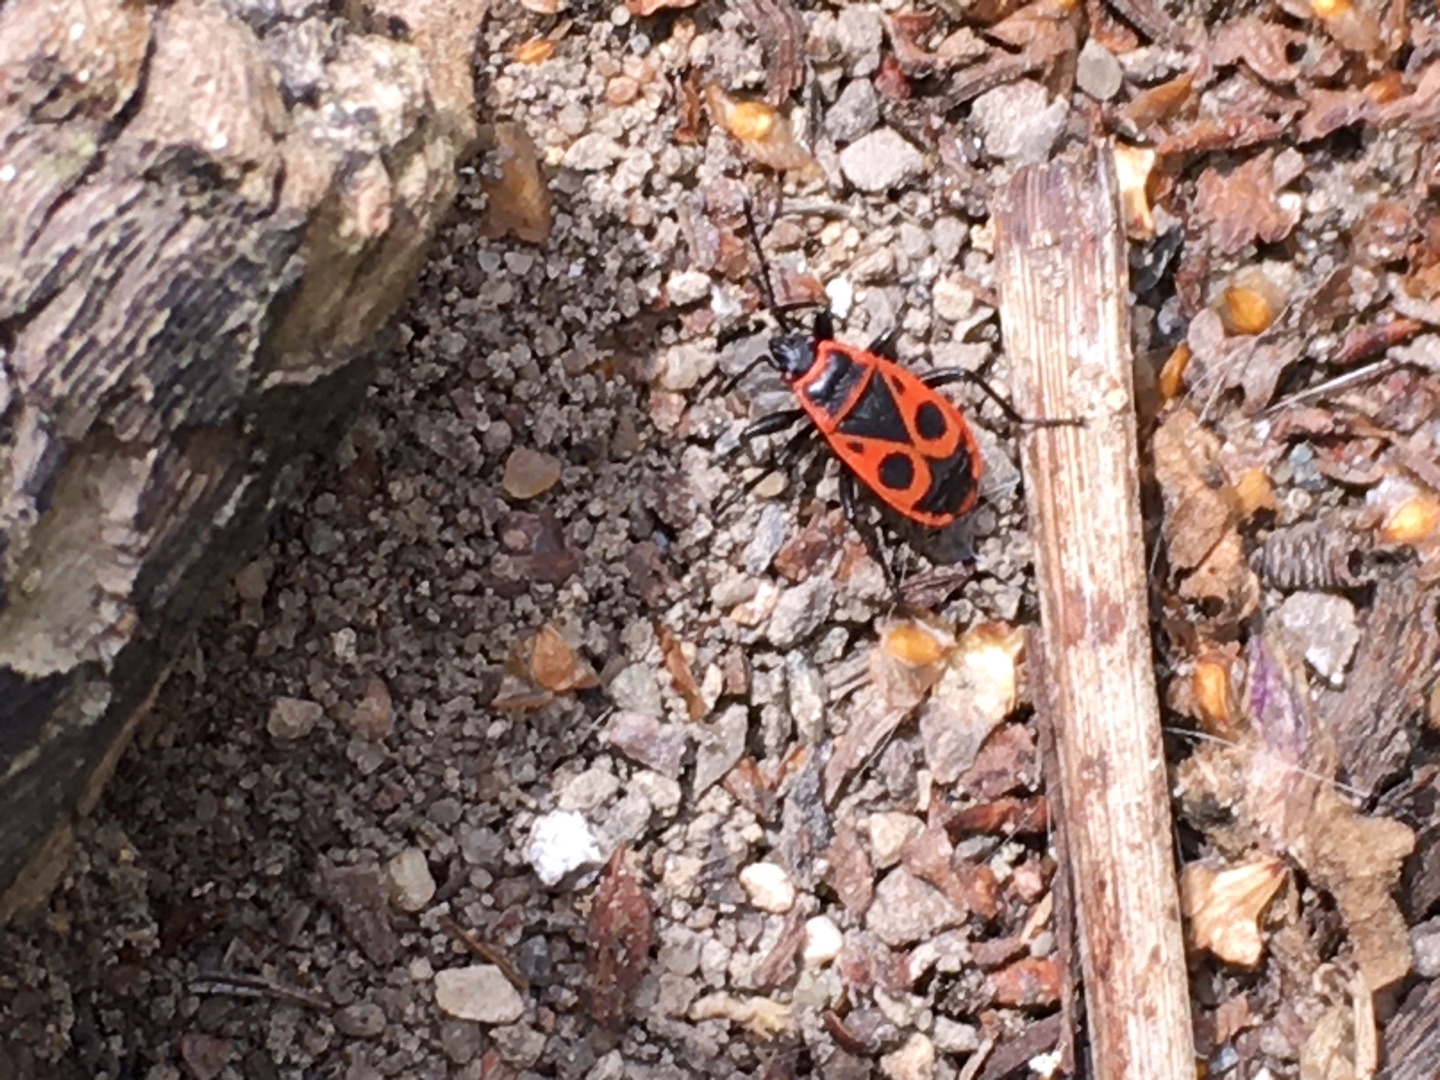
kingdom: Animalia
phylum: Arthropoda
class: Insecta
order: Hemiptera
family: Pyrrhocoridae
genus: Pyrrhocoris
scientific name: Pyrrhocoris apterus
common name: Ildtæge
